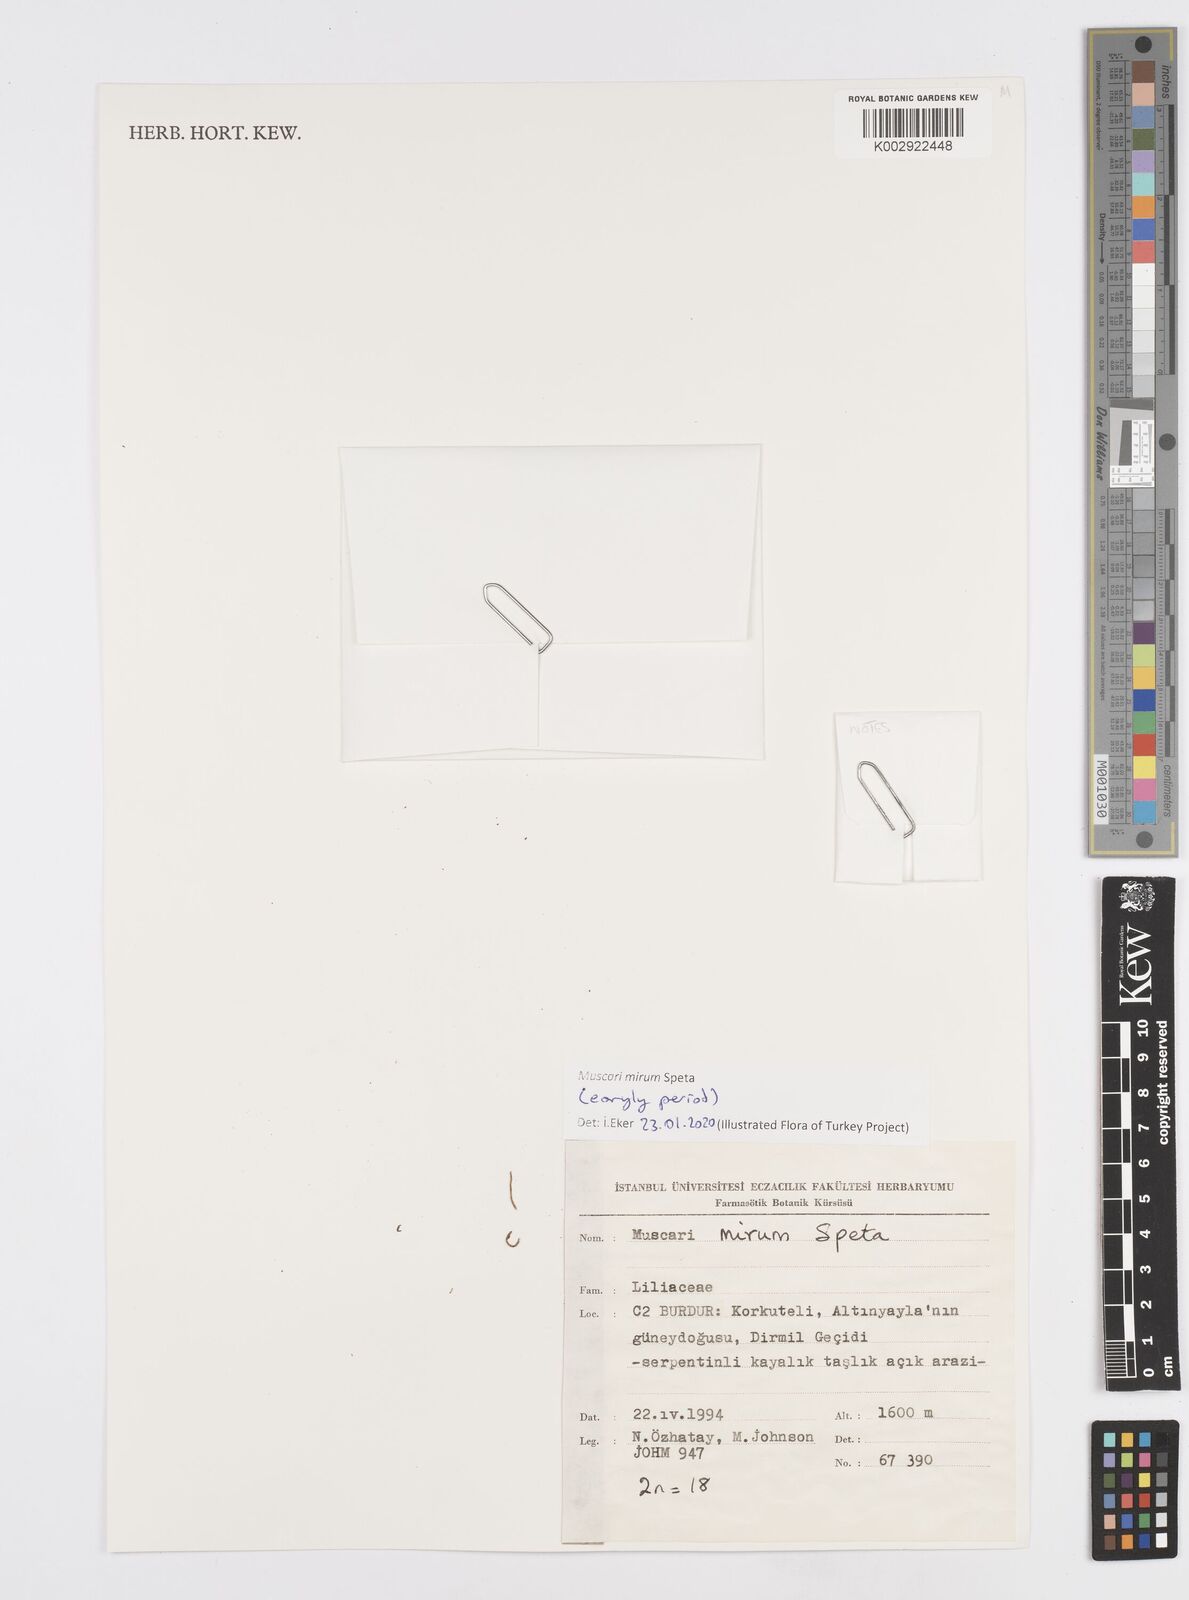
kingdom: Plantae
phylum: Tracheophyta
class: Liliopsida
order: Asparagales
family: Asparagaceae
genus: Muscari
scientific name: Muscari tenuiflorum
